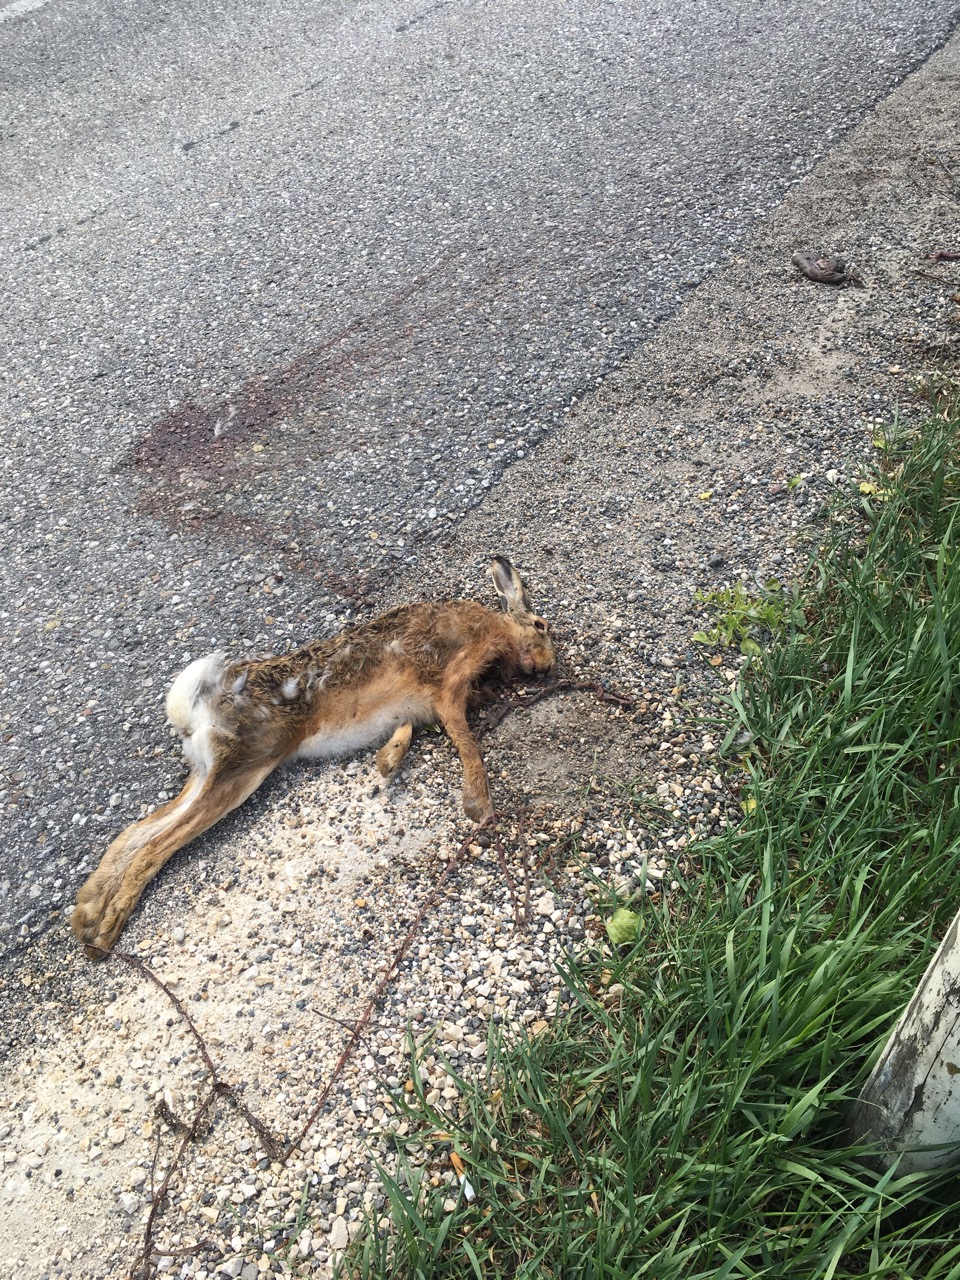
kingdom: Animalia
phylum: Chordata
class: Mammalia
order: Lagomorpha
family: Leporidae
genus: Lepus
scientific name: Lepus europaeus
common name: European hare
